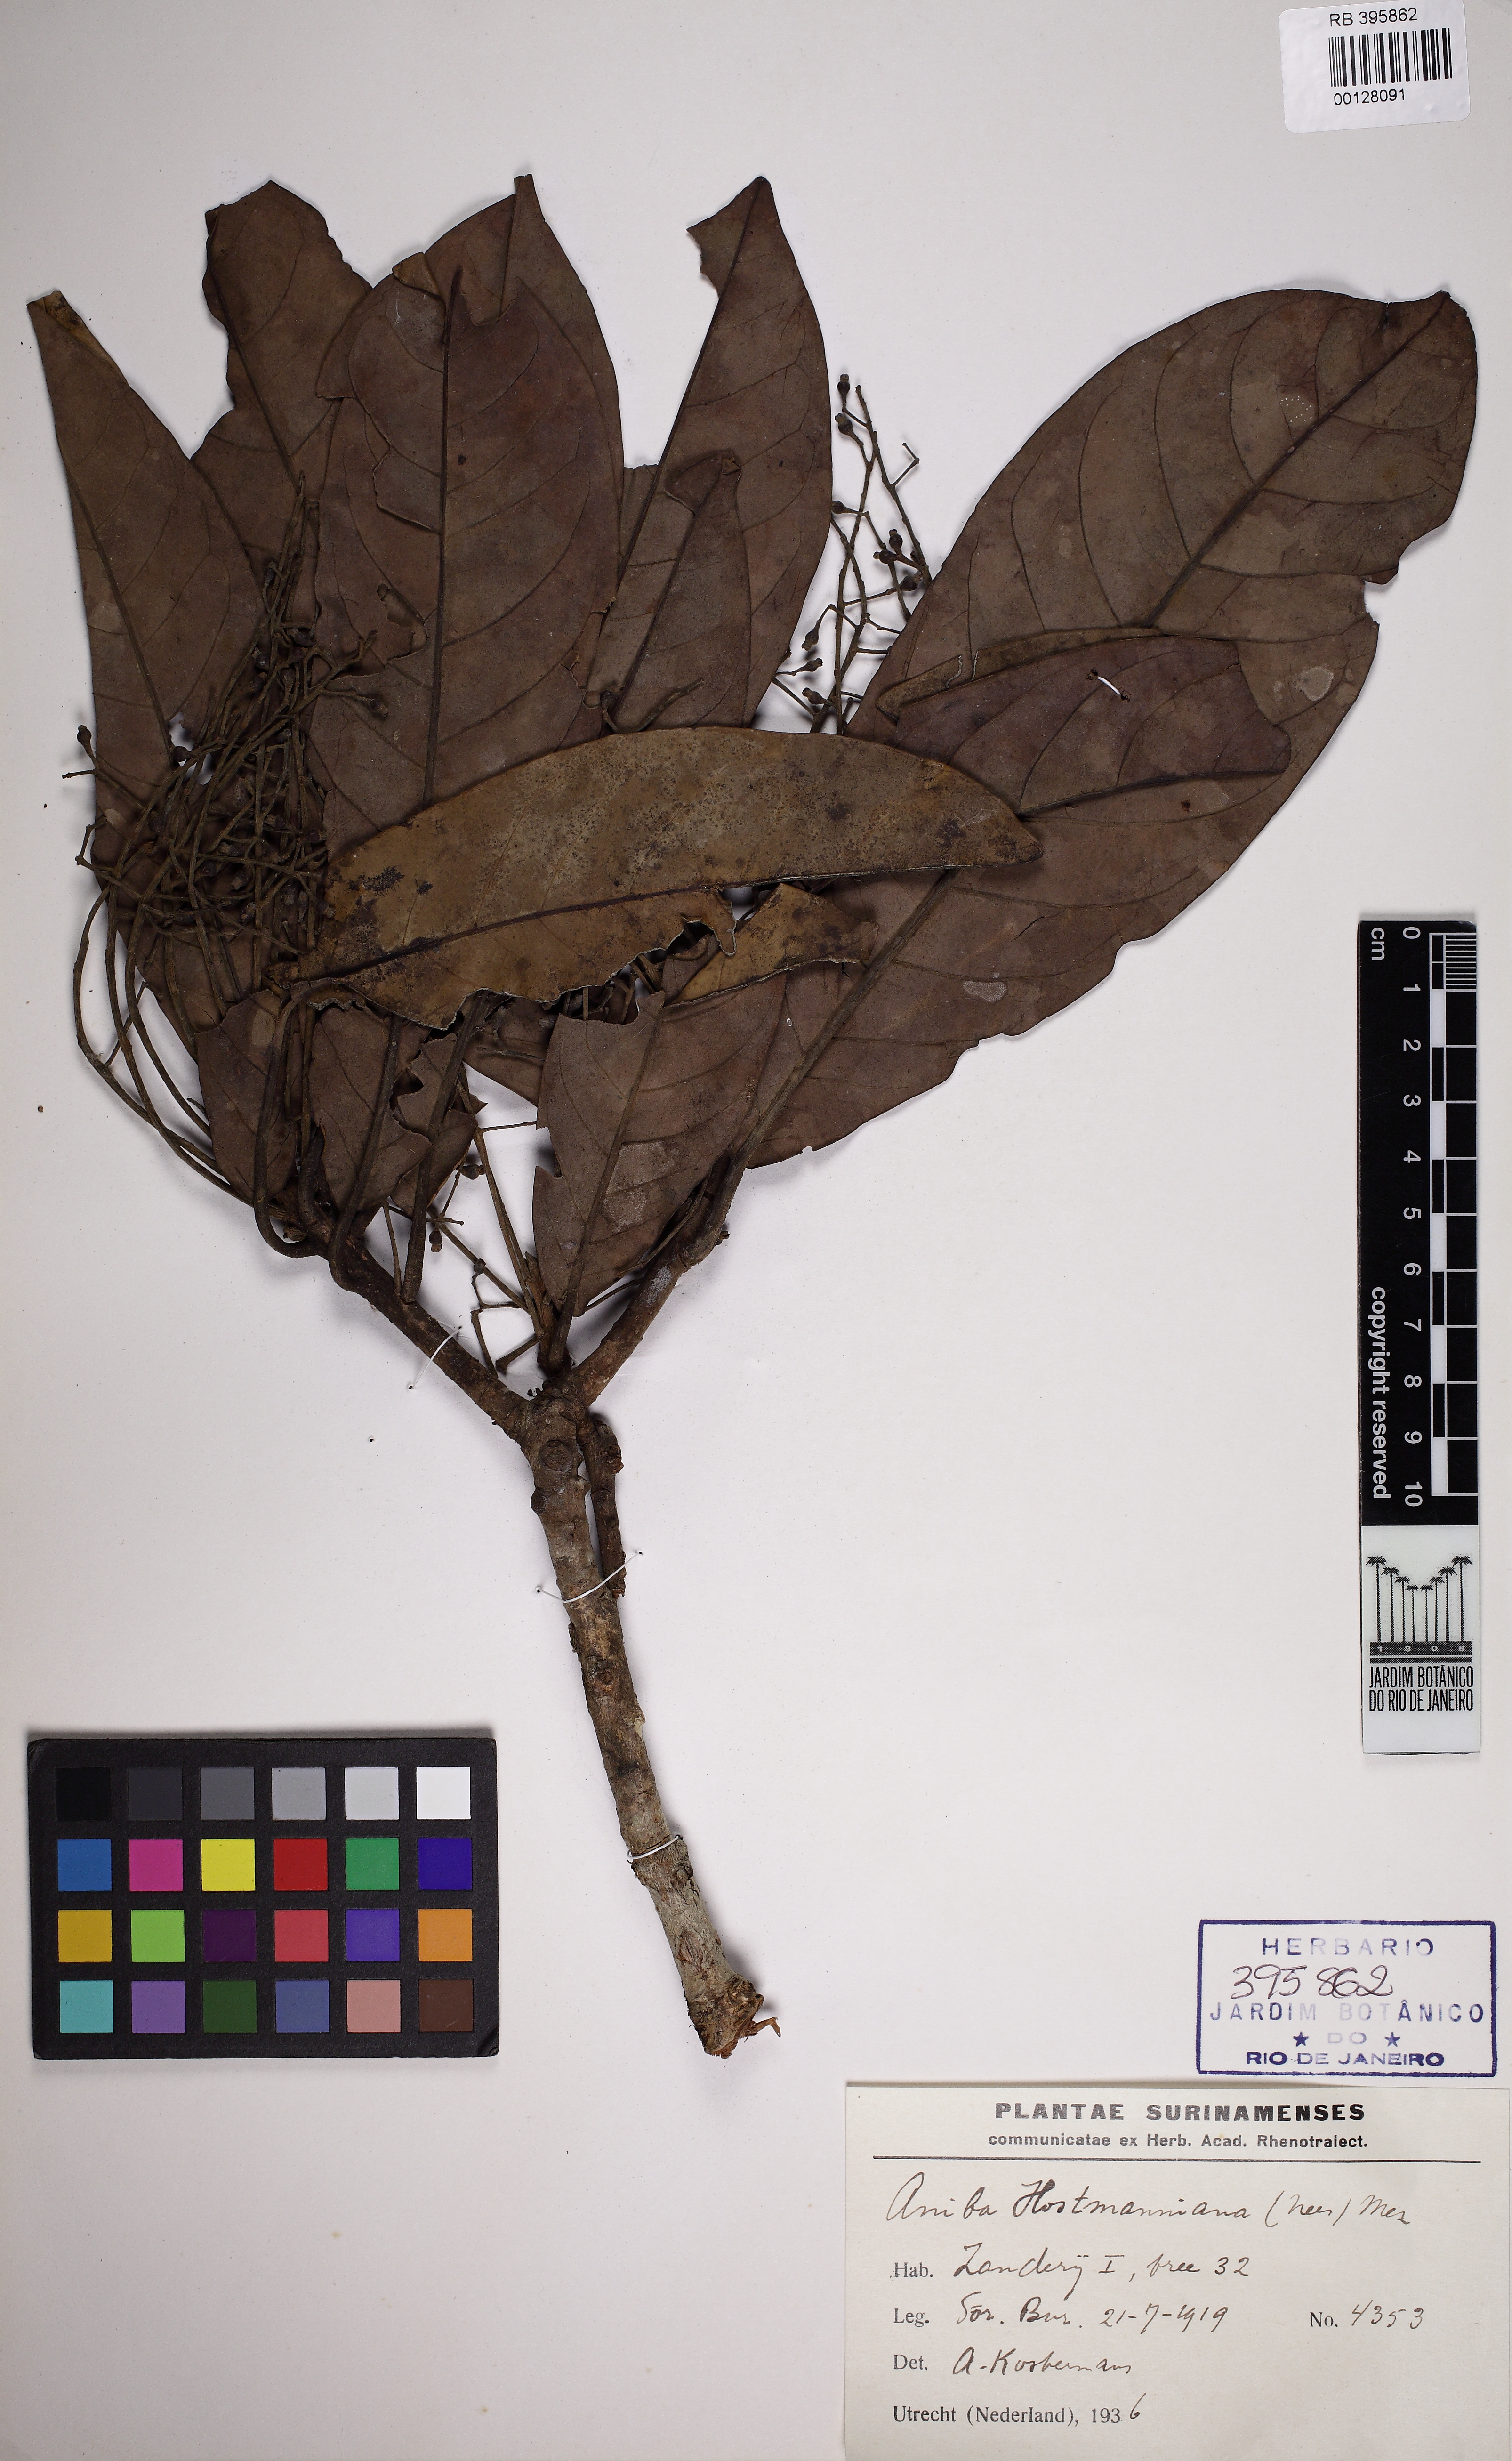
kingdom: Plantae
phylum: Tracheophyta
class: Magnoliopsida
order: Laurales
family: Lauraceae
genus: Aniba
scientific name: Aniba hostmanniana
